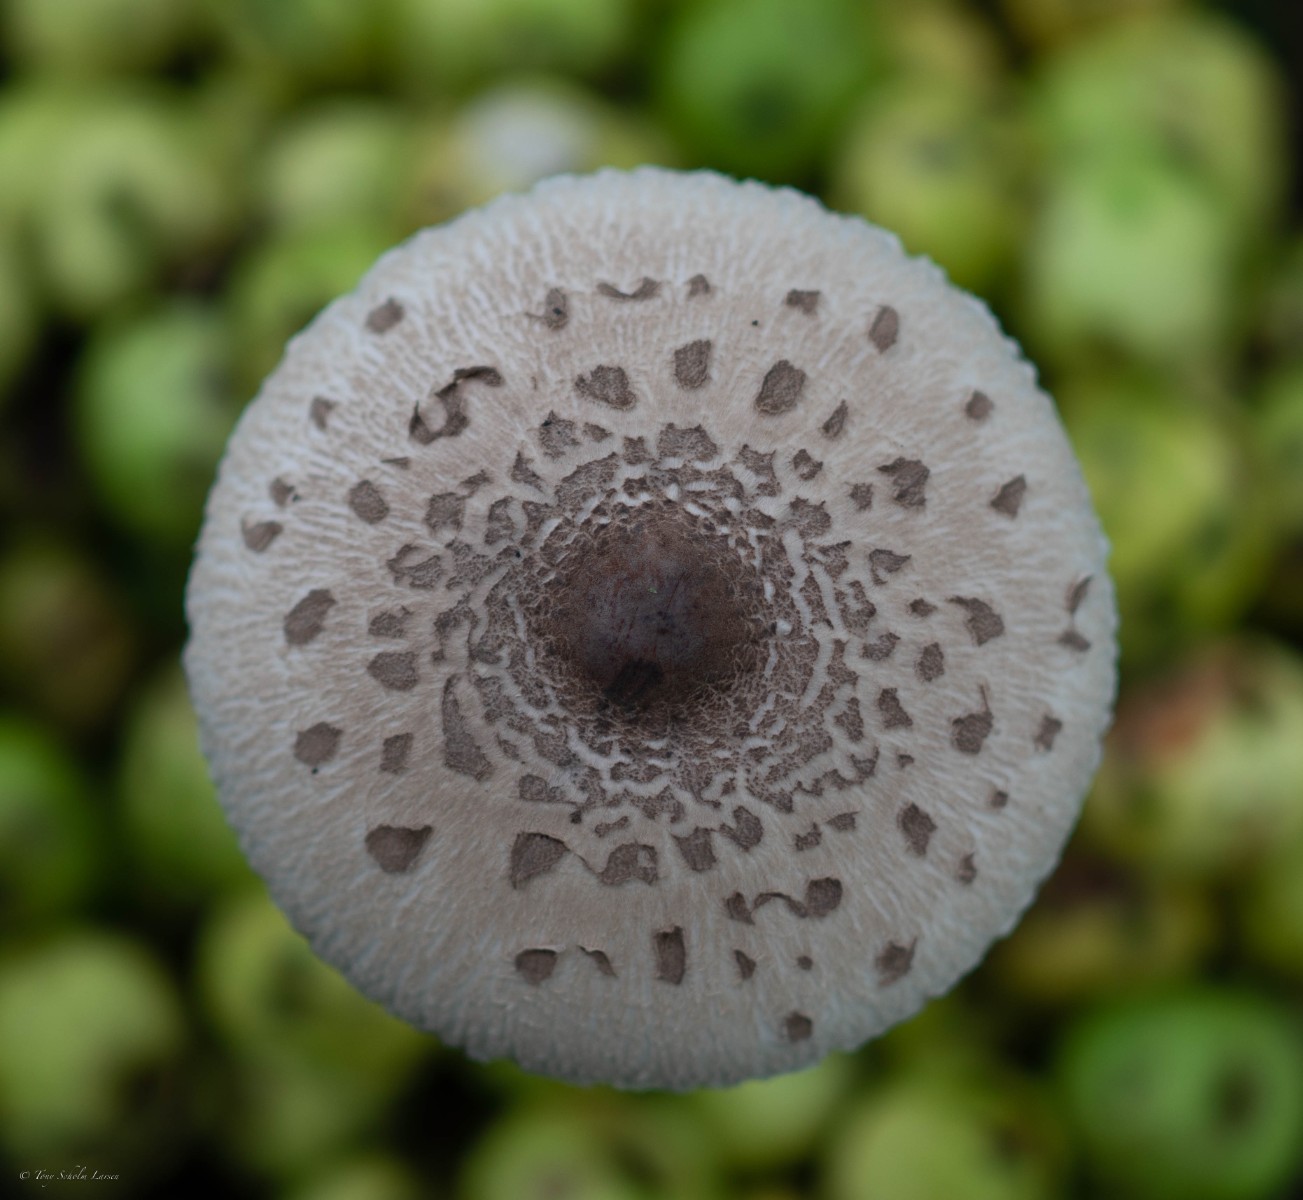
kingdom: Fungi
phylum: Basidiomycota
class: Agaricomycetes
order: Agaricales
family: Agaricaceae
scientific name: Agaricaceae
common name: champignonfamilien
